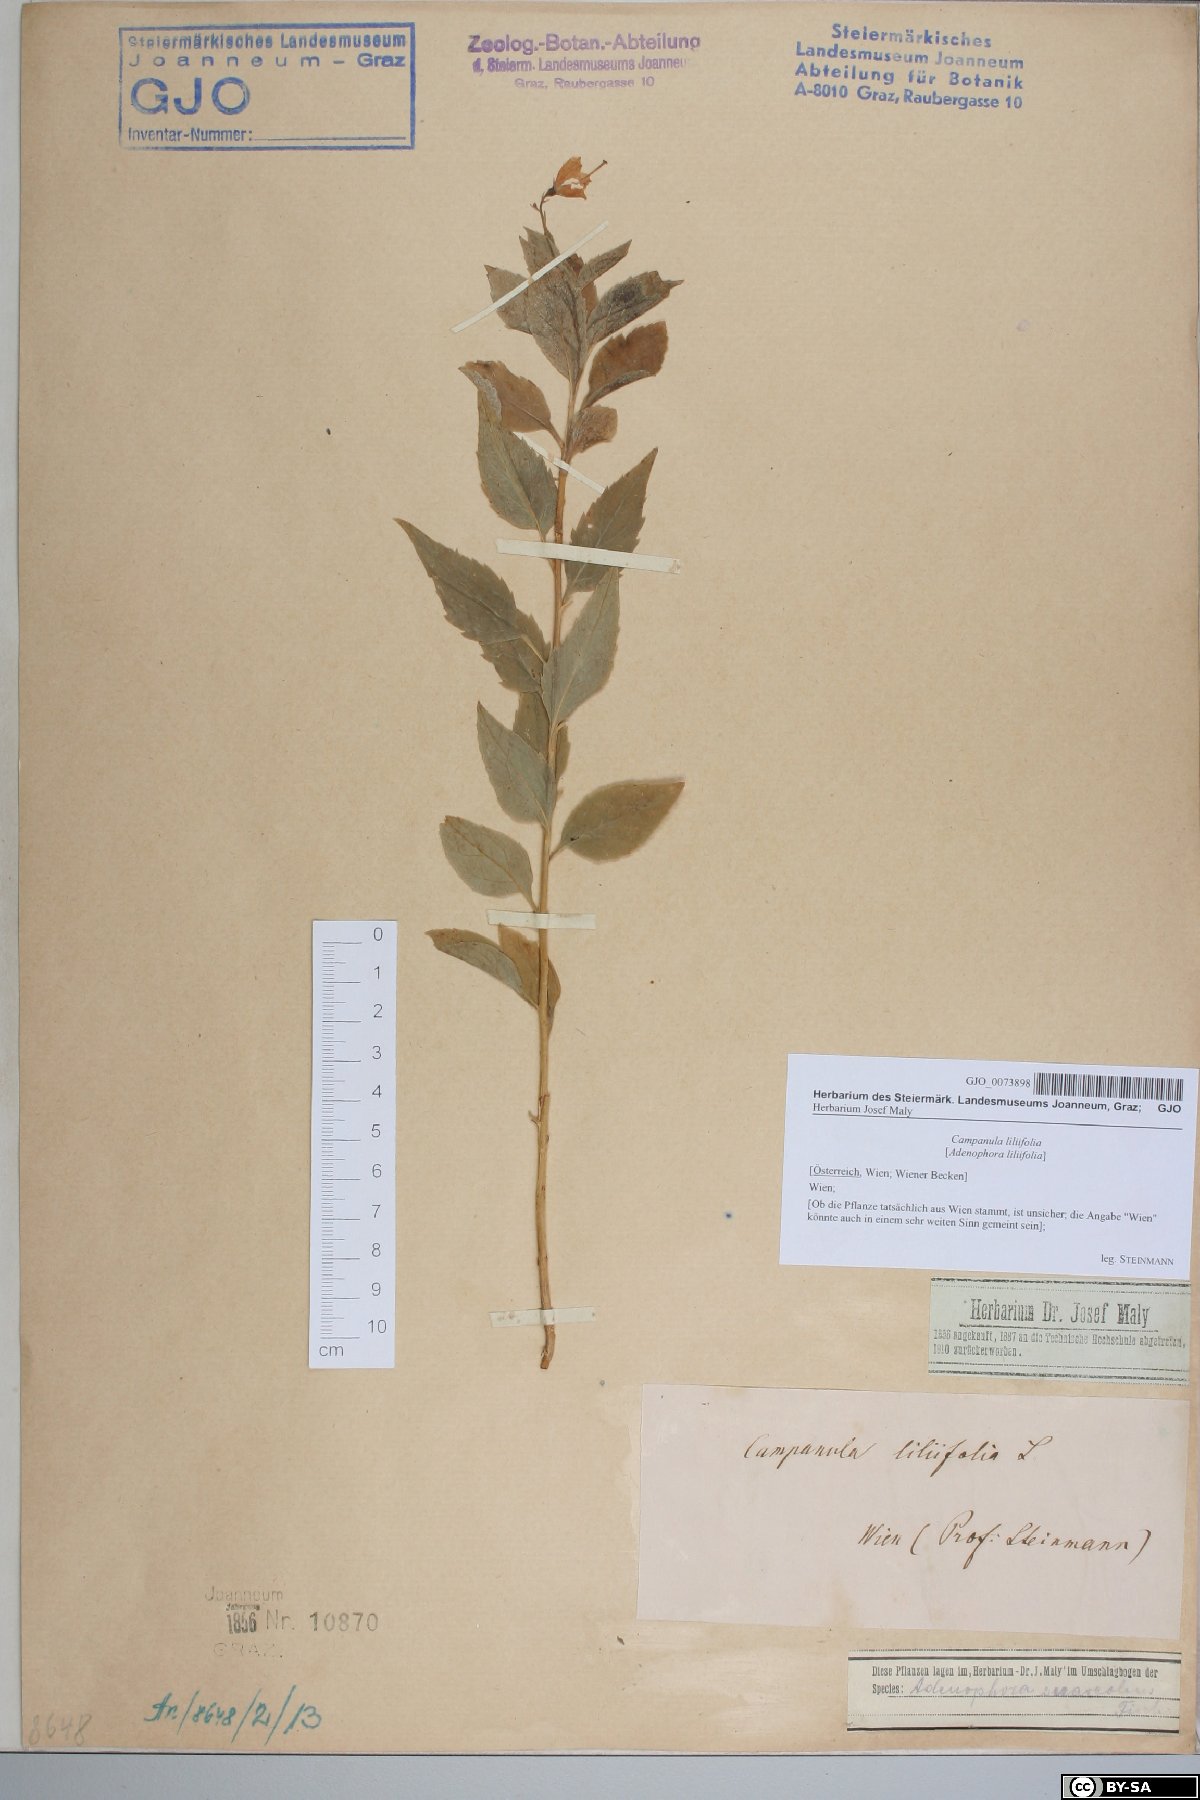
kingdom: Plantae
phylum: Tracheophyta
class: Magnoliopsida
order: Asterales
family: Campanulaceae
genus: Adenophora
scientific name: Adenophora liliifolia
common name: Lilyleaf ladybells
